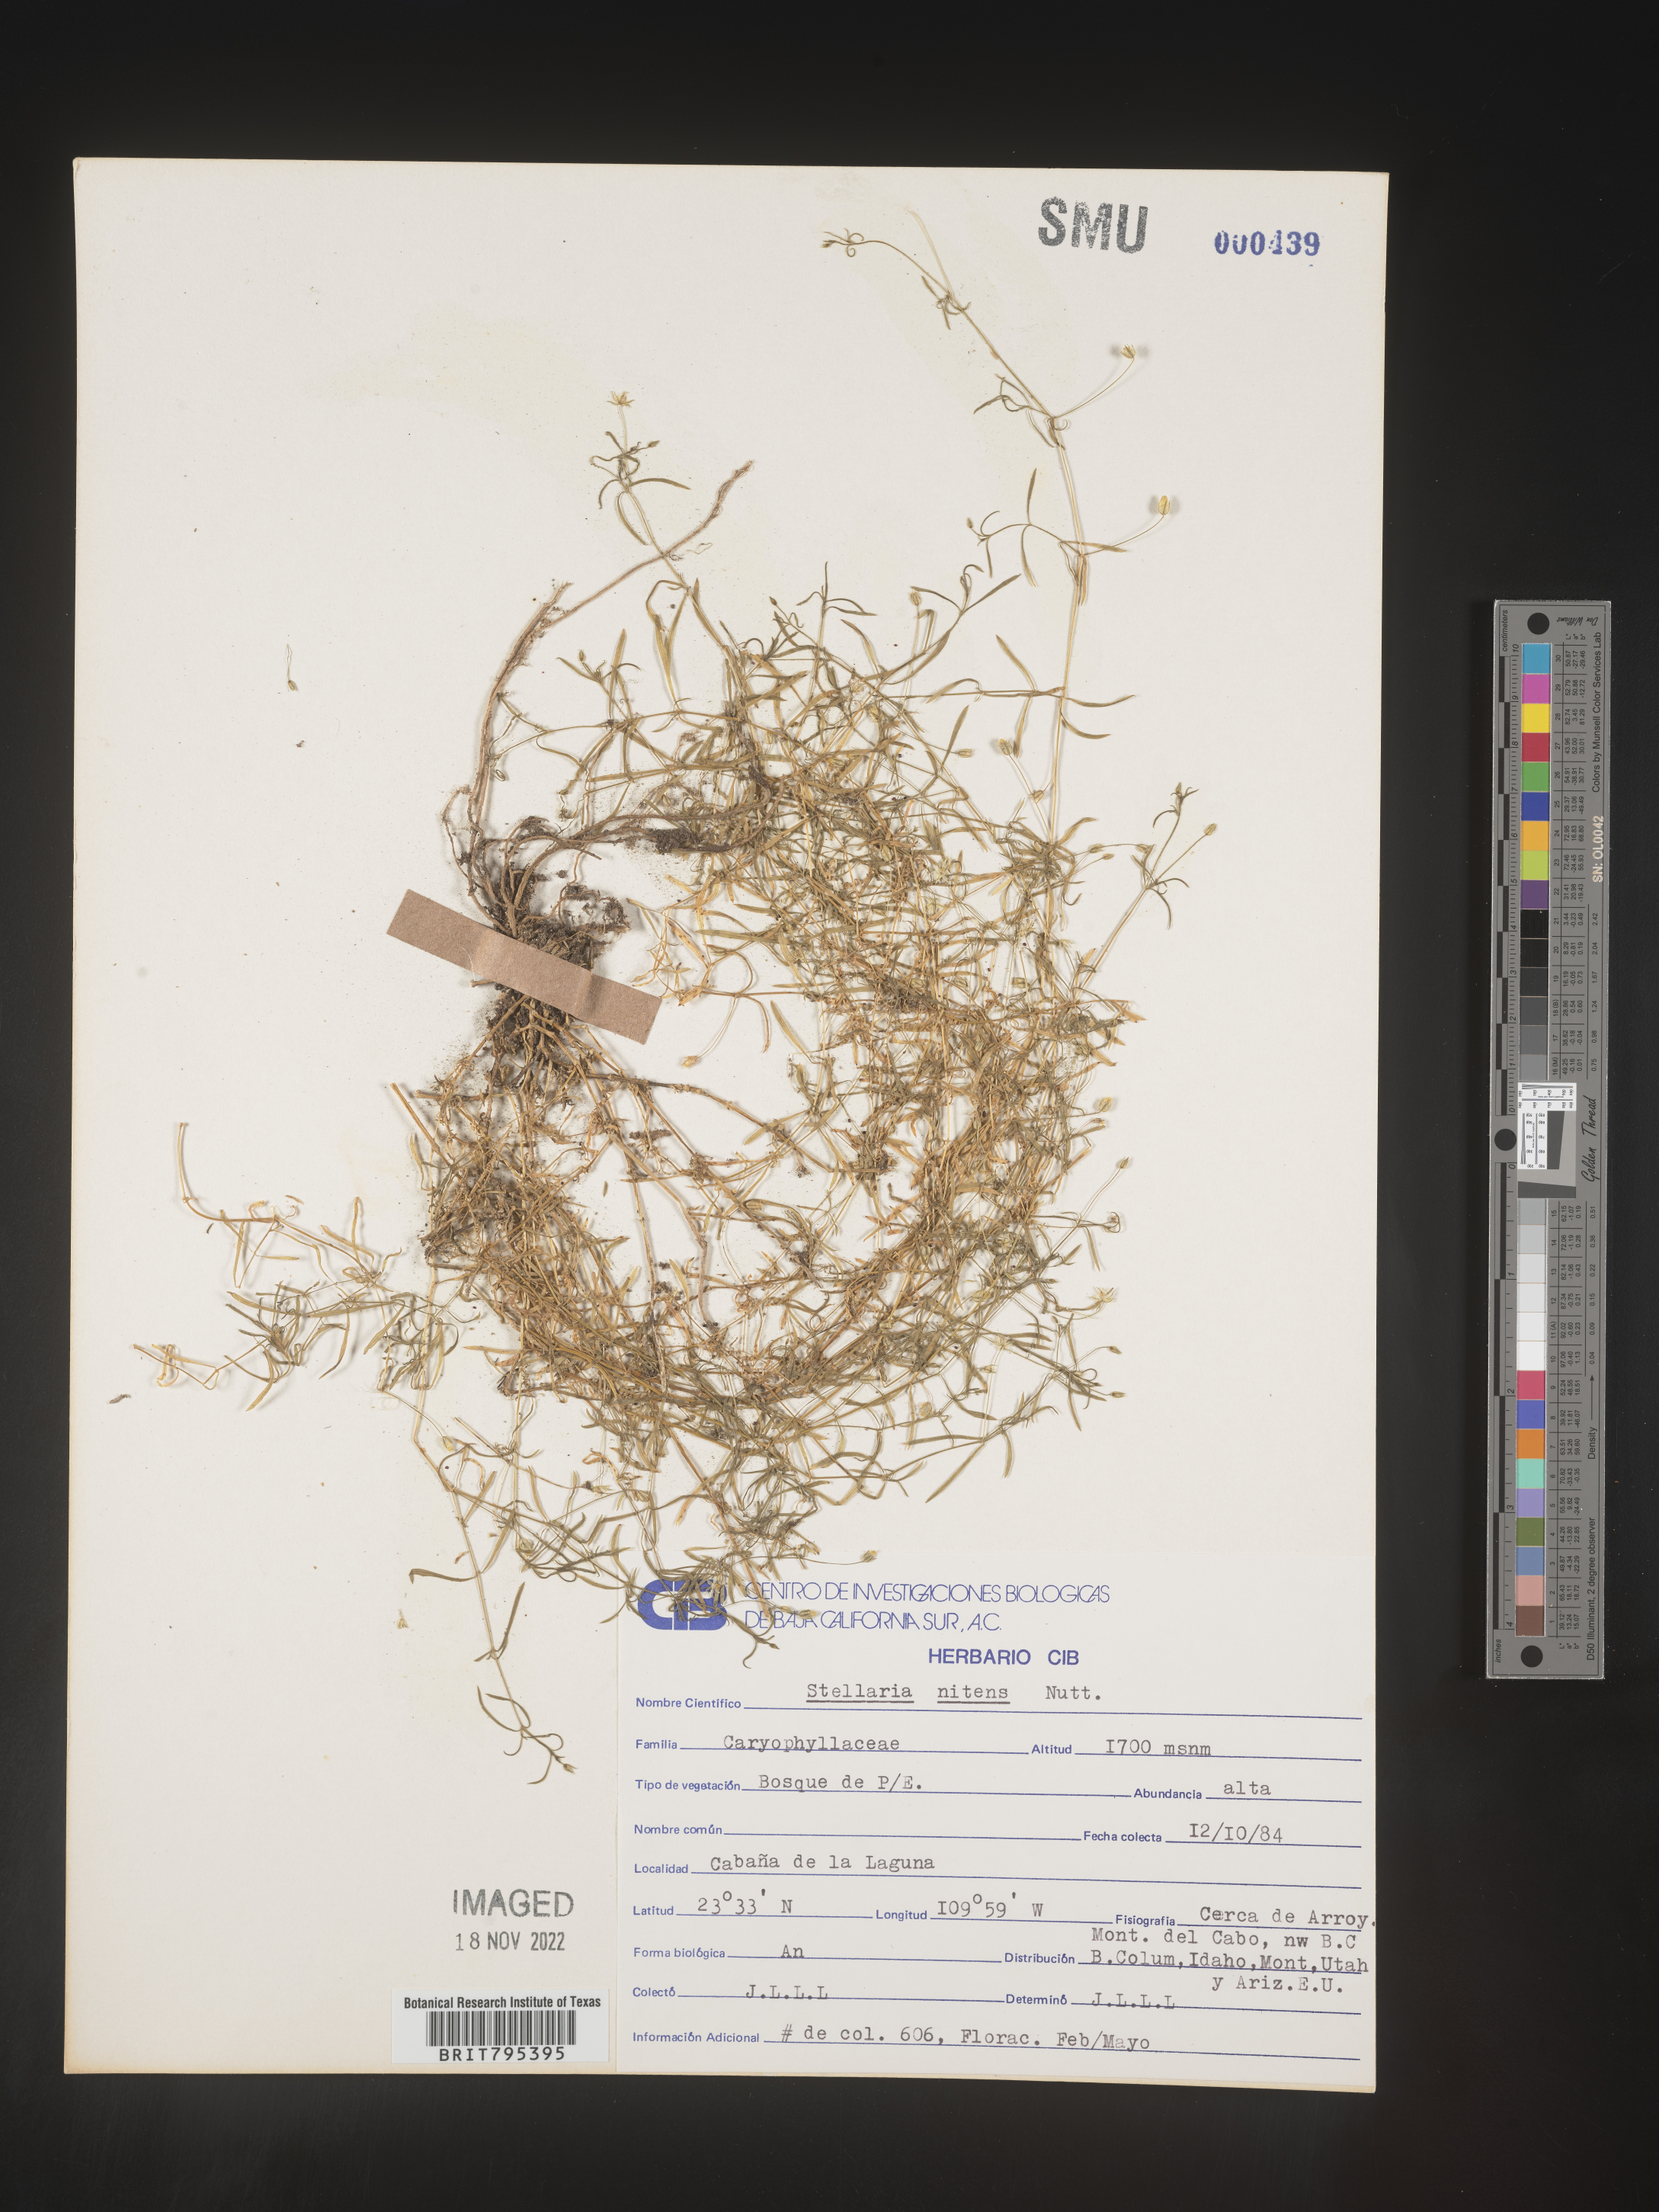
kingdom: Plantae
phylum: Tracheophyta
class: Magnoliopsida
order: Caryophyllales
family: Caryophyllaceae
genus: Stellaria
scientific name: Stellaria
